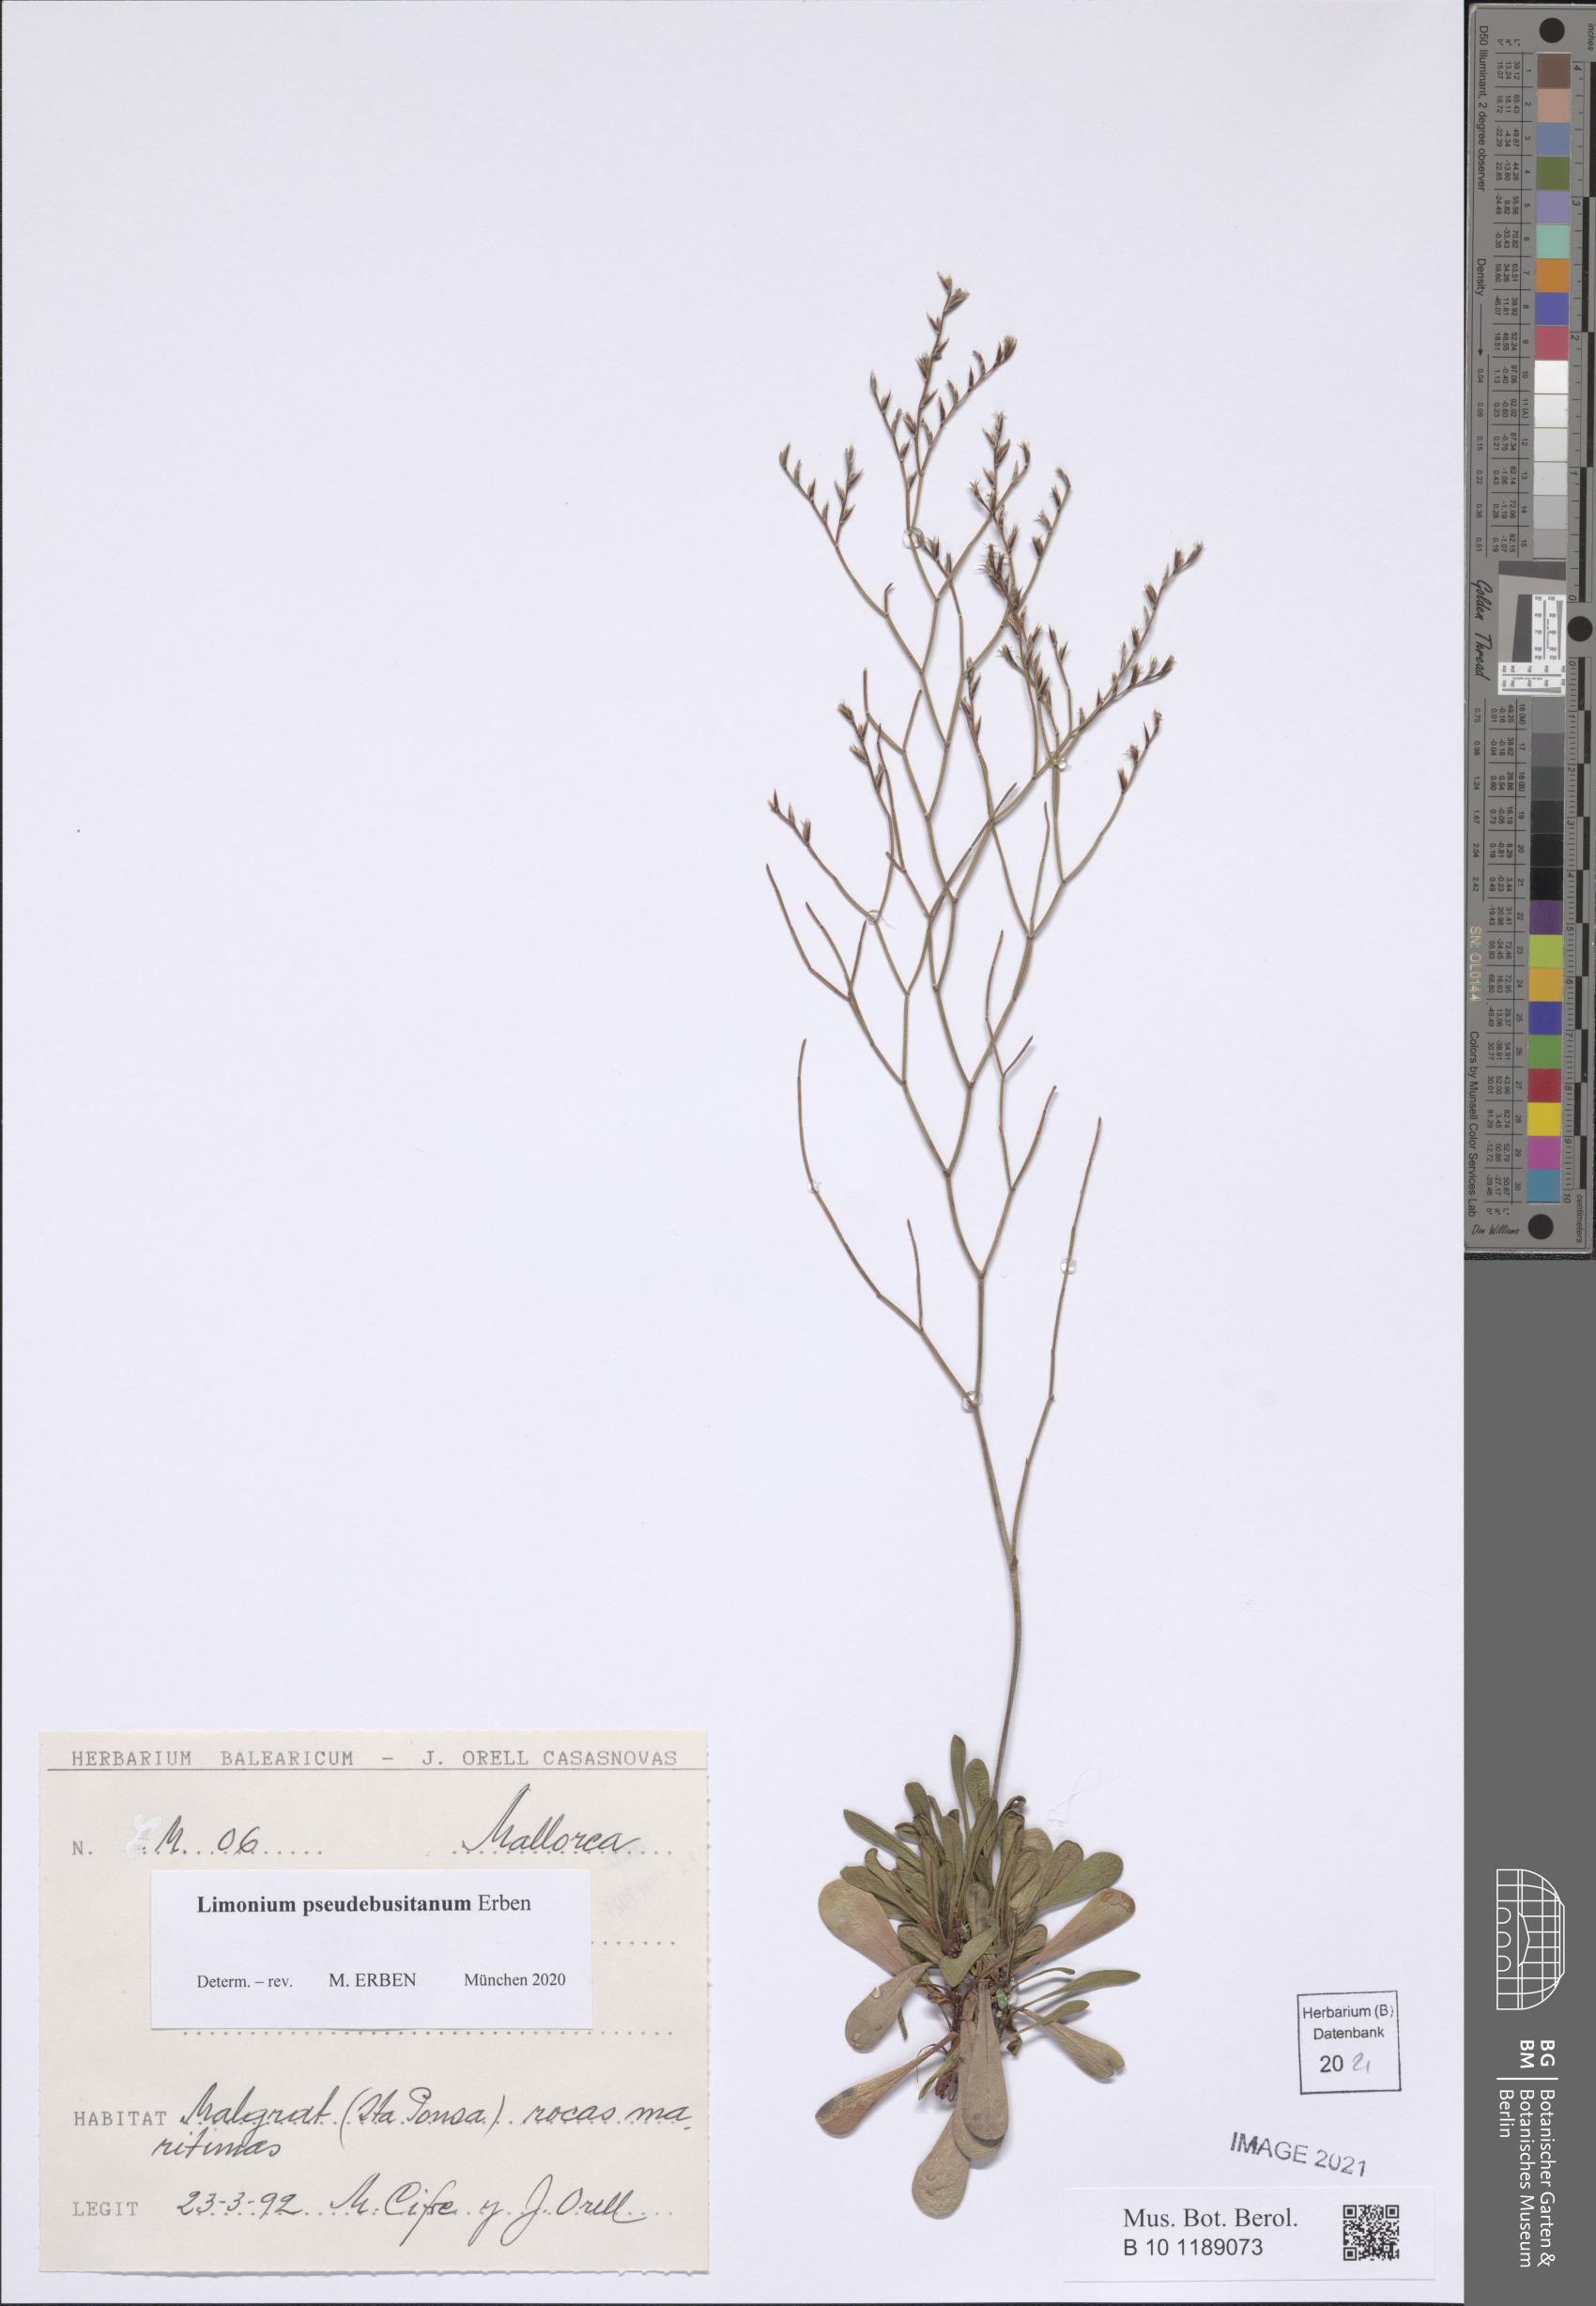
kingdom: Plantae
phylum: Tracheophyta
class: Magnoliopsida
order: Caryophyllales
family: Plumbaginaceae
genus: Limonium
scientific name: Limonium pseudebusitanum
